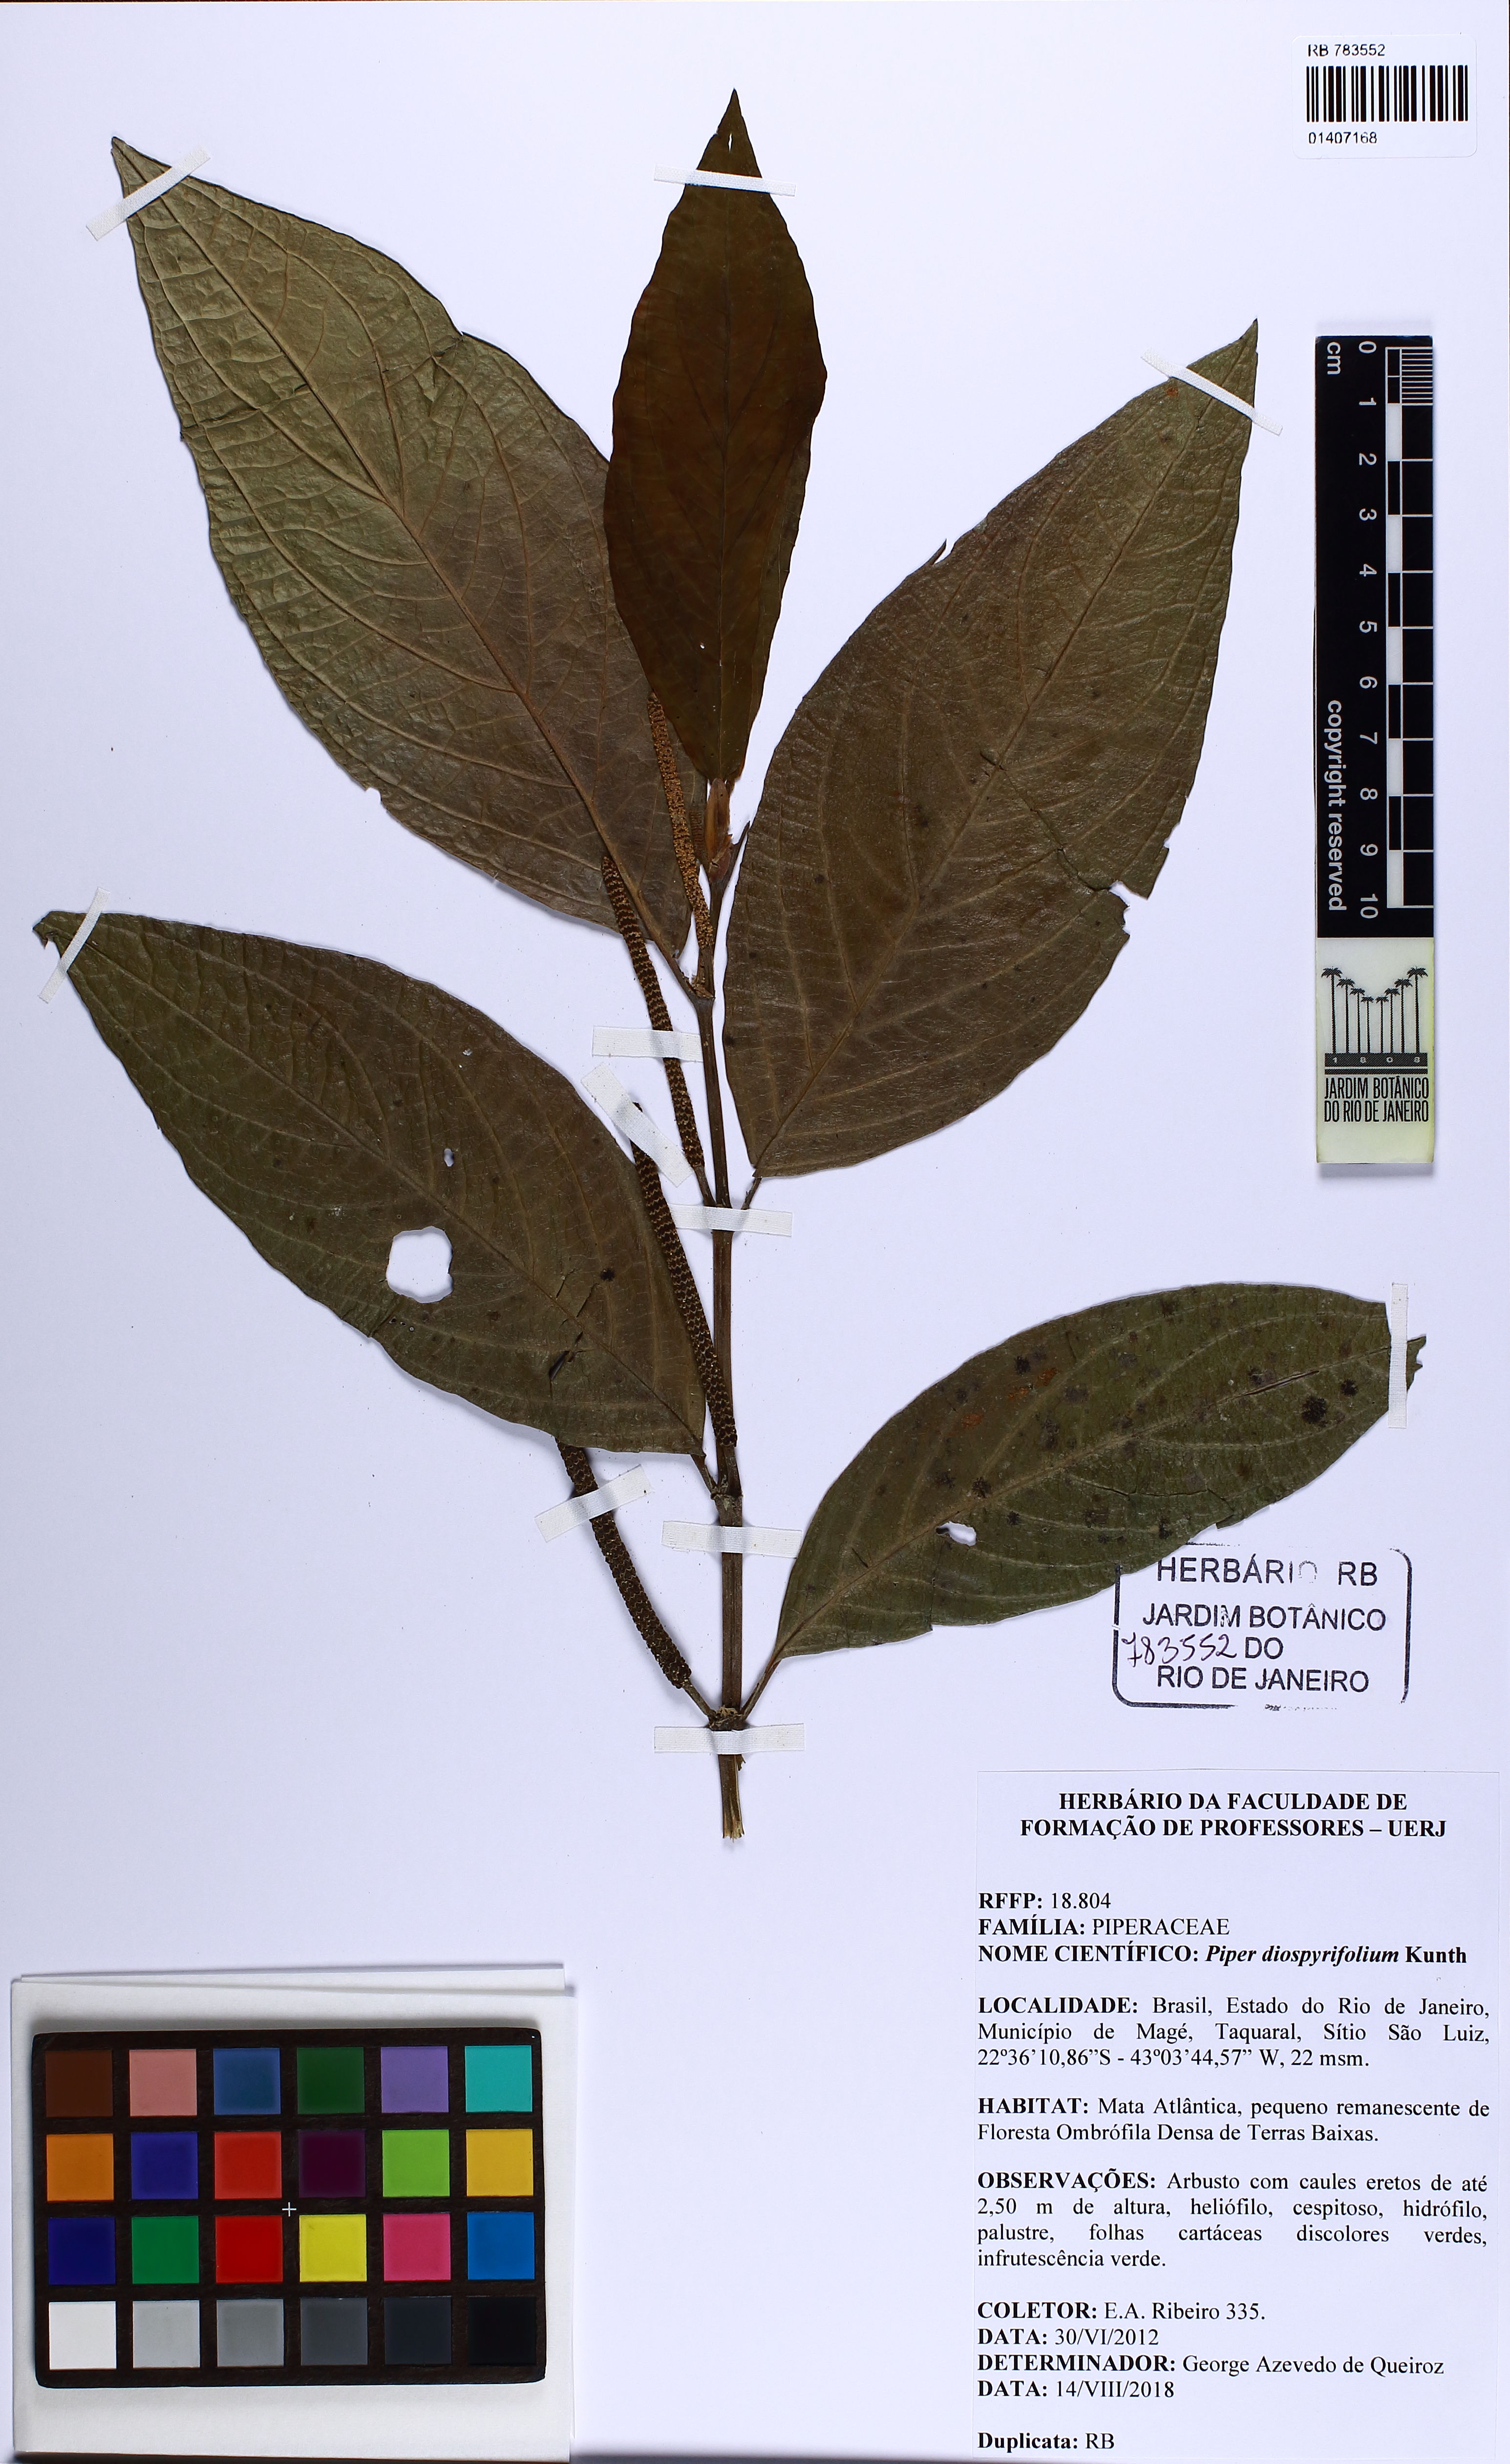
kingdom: Plantae
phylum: Tracheophyta
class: Magnoliopsida
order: Piperales
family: Piperaceae
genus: Piper
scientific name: Piper diospyrifolium
